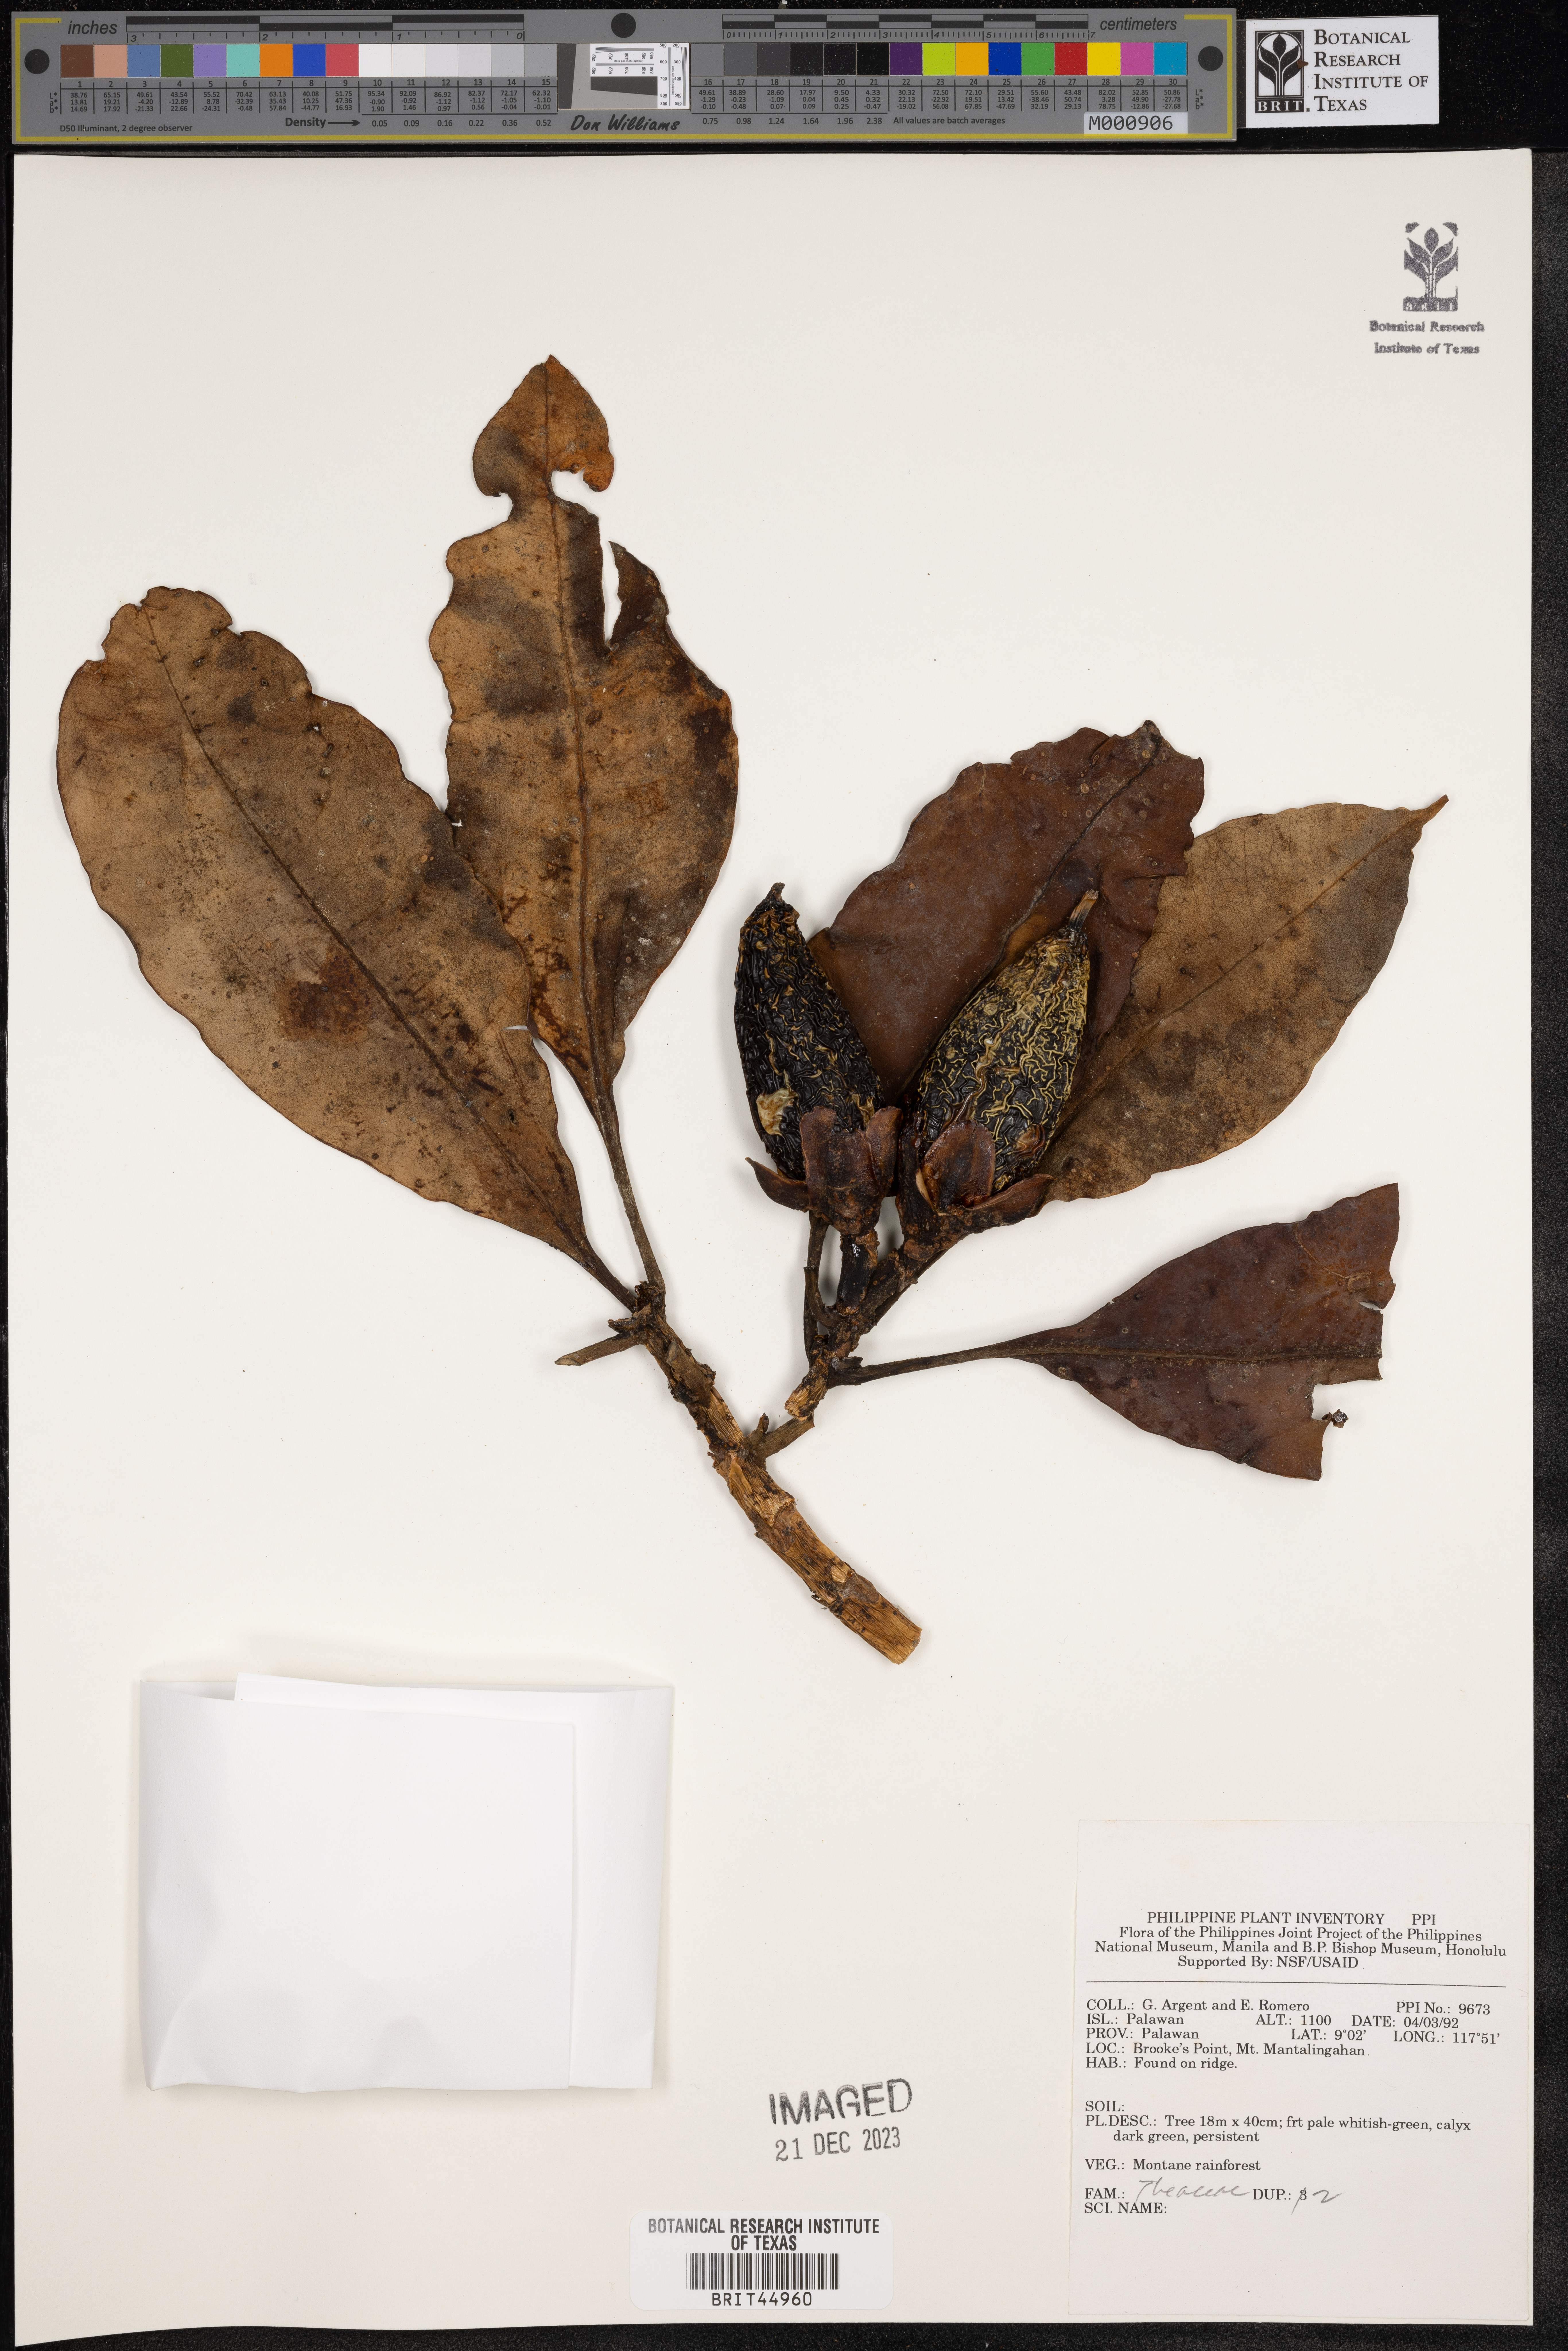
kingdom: Plantae
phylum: Tracheophyta
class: Magnoliopsida
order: Ericales
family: Theaceae
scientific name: Theaceae
